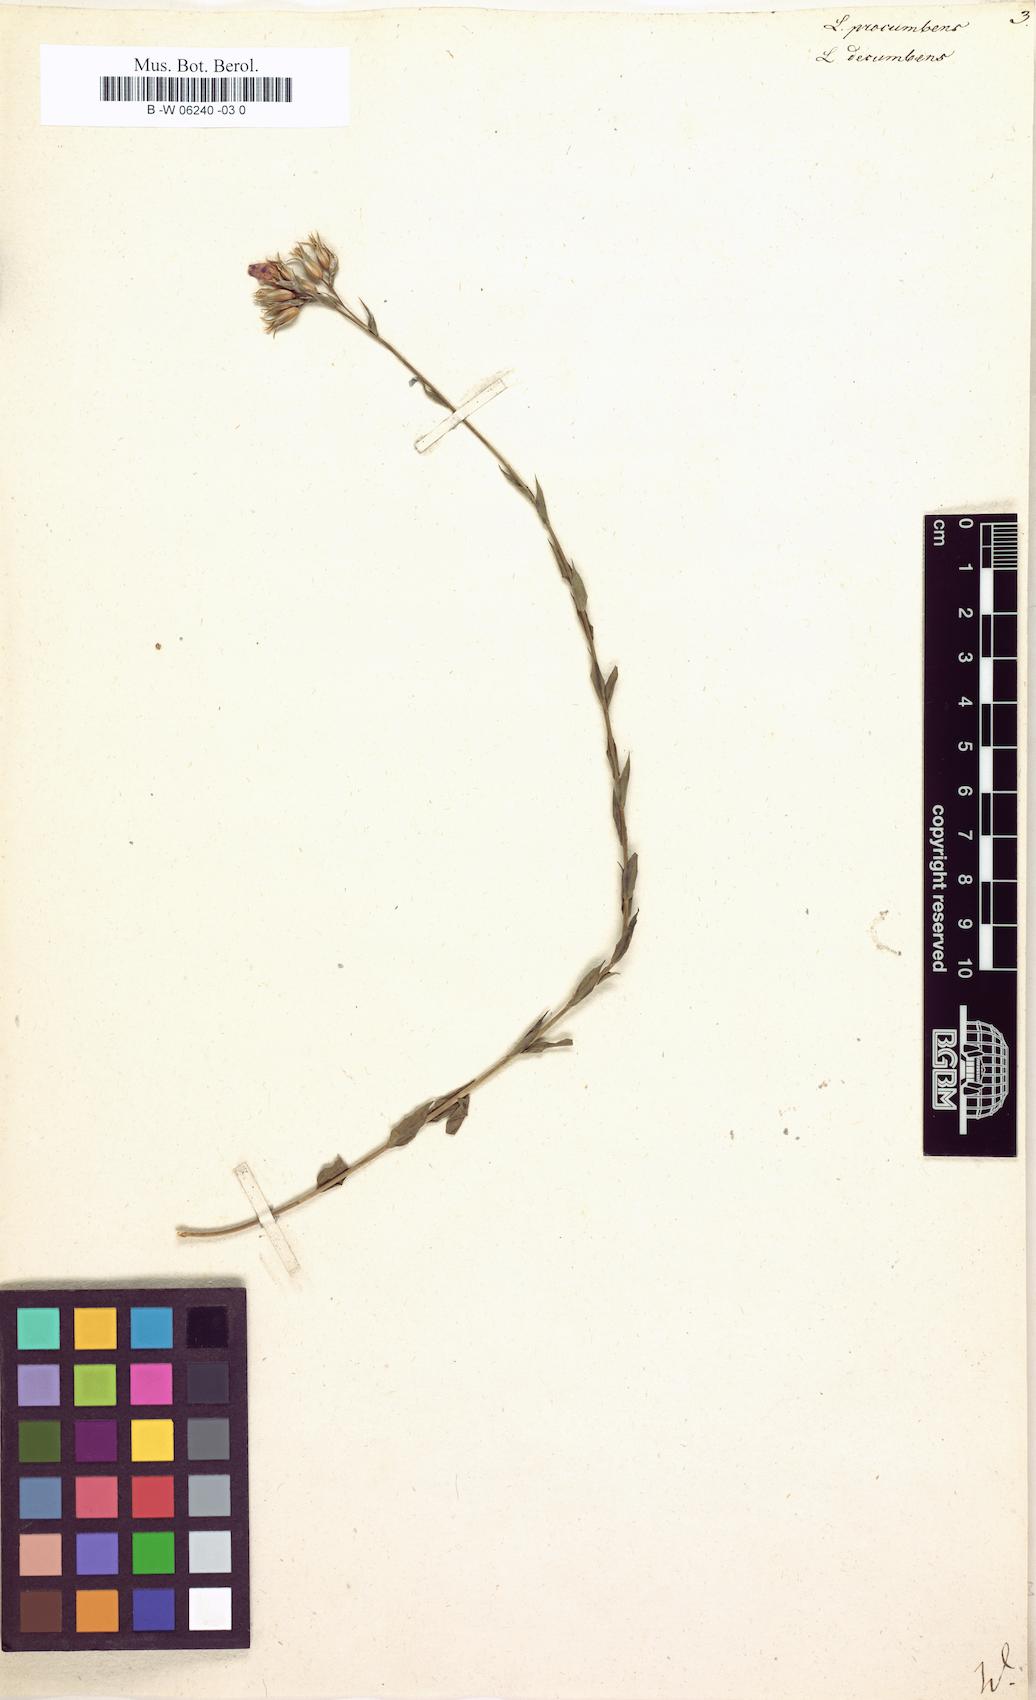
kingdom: Plantae
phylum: Tracheophyta
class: Magnoliopsida
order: Malpighiales
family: Linaceae
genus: Linum
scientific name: Linum procumbens
